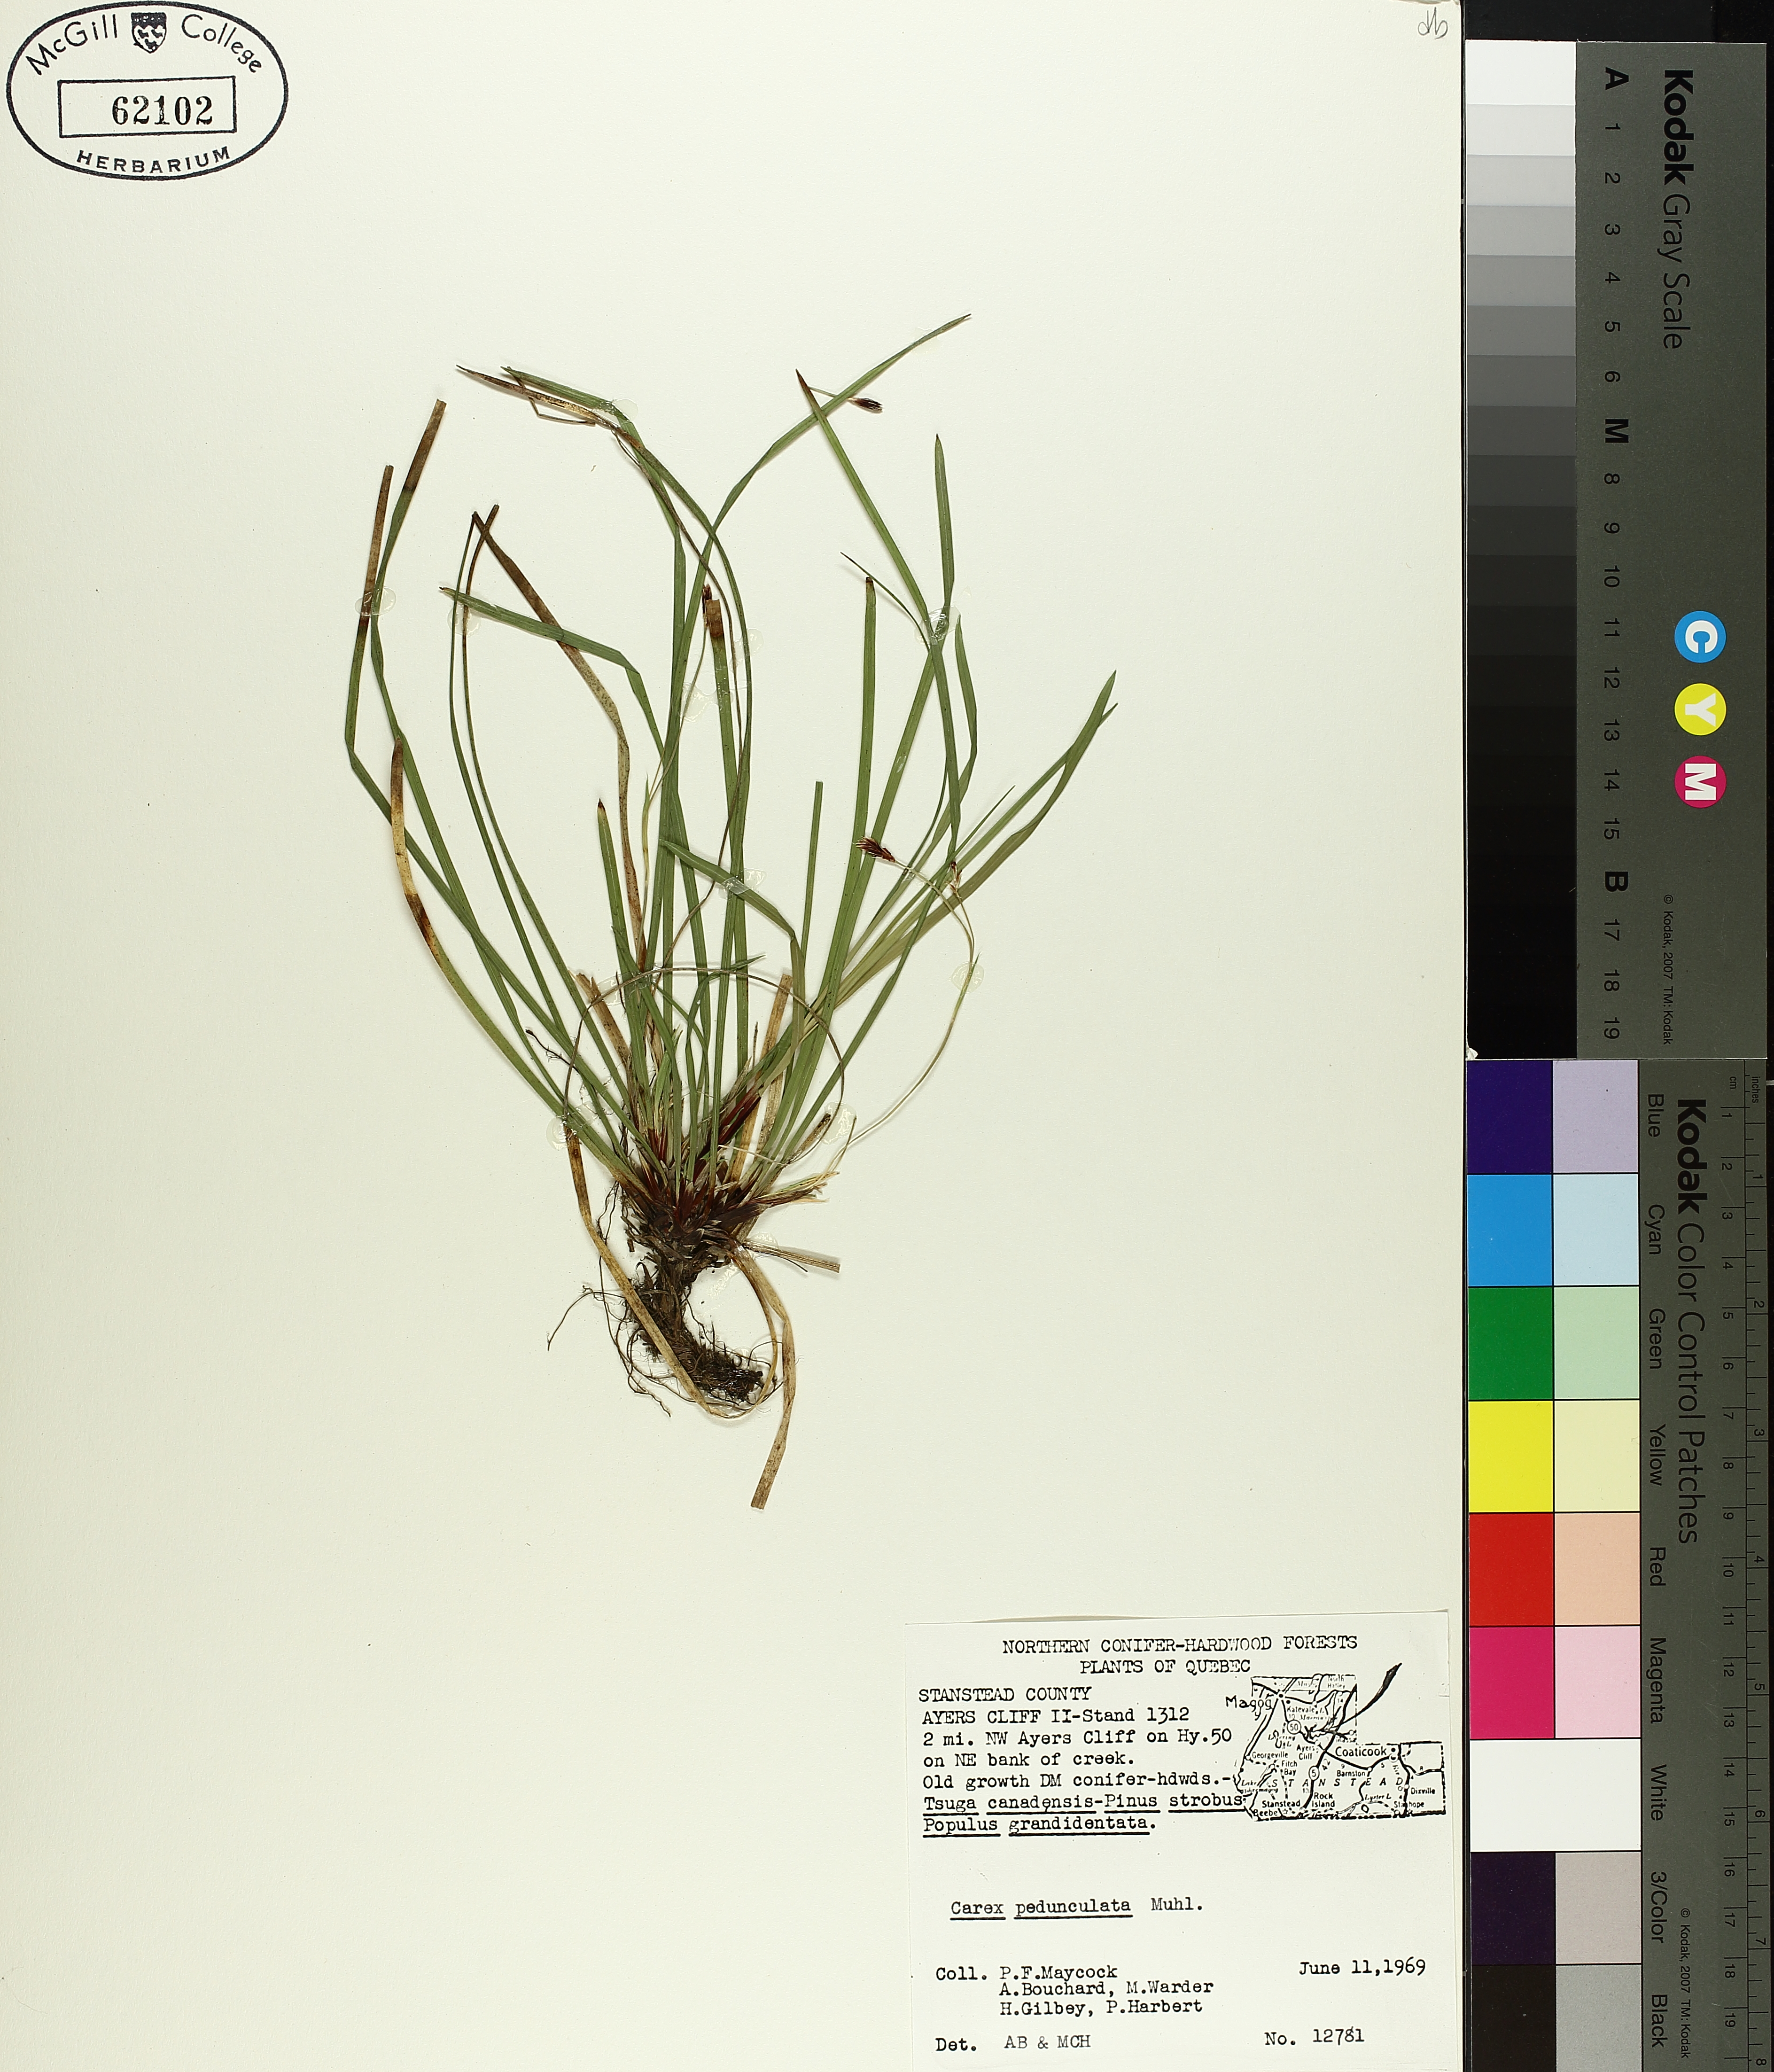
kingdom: Plantae
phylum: Tracheophyta
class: Liliopsida
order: Poales
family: Cyperaceae
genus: Carex
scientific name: Carex pedunculata
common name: Pedunculate sedge
